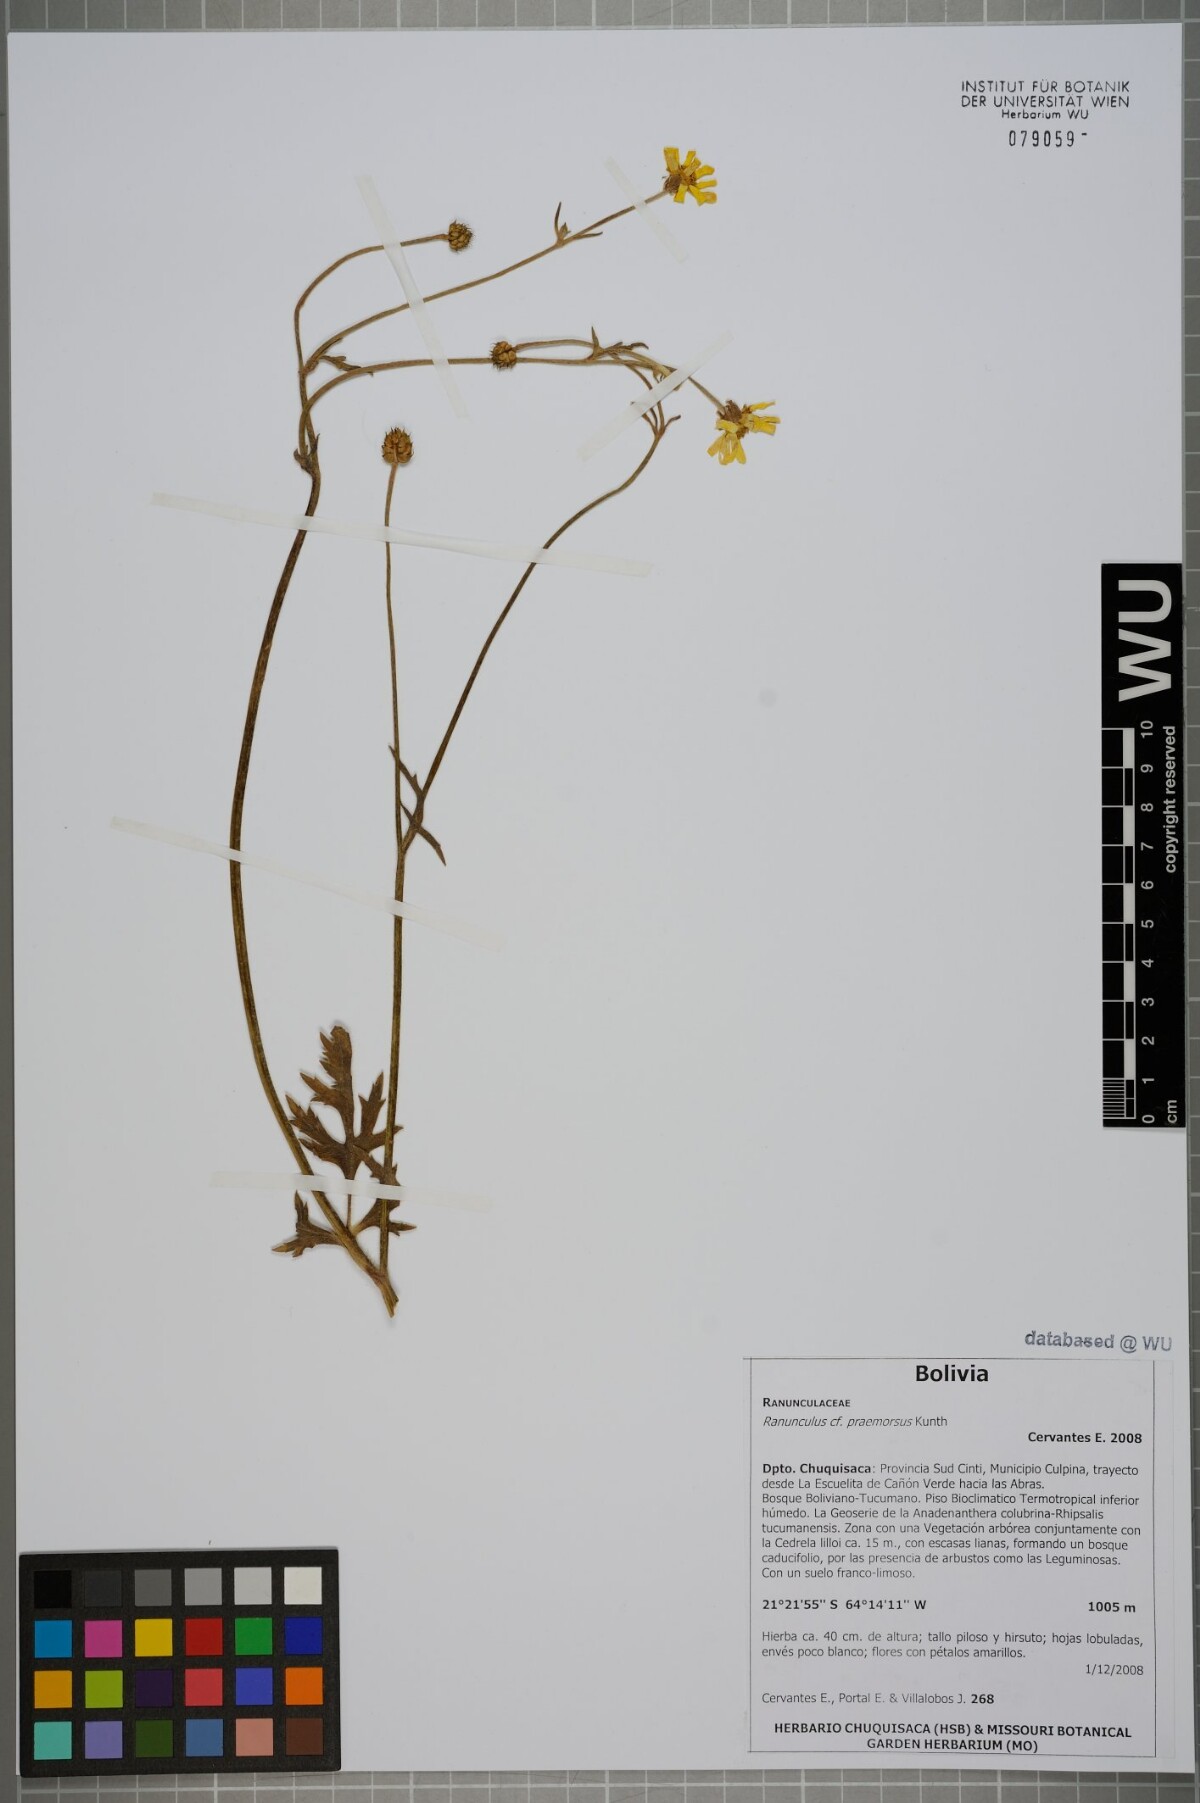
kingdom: Plantae
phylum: Tracheophyta
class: Magnoliopsida
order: Ranunculales
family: Ranunculaceae
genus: Ranunculus
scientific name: Ranunculus praemorsus
